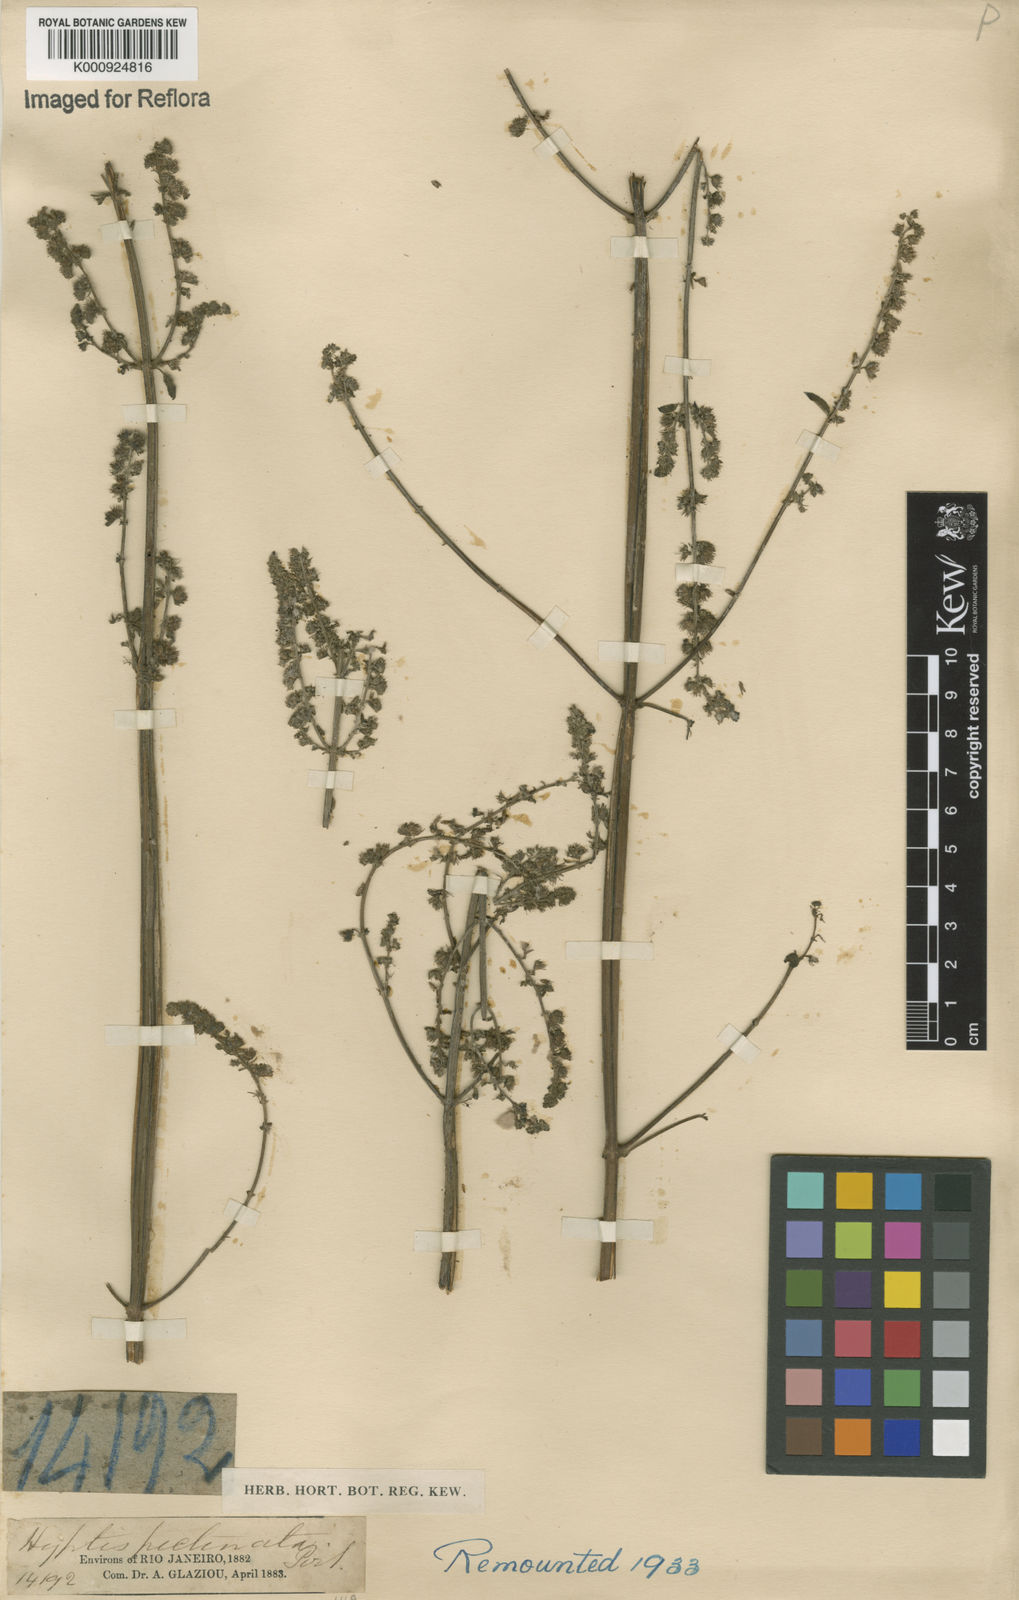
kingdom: Plantae
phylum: Tracheophyta
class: Magnoliopsida
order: Lamiales
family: Lamiaceae
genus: Mesosphaerum
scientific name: Mesosphaerum pectinatum
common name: Comb hyptis
